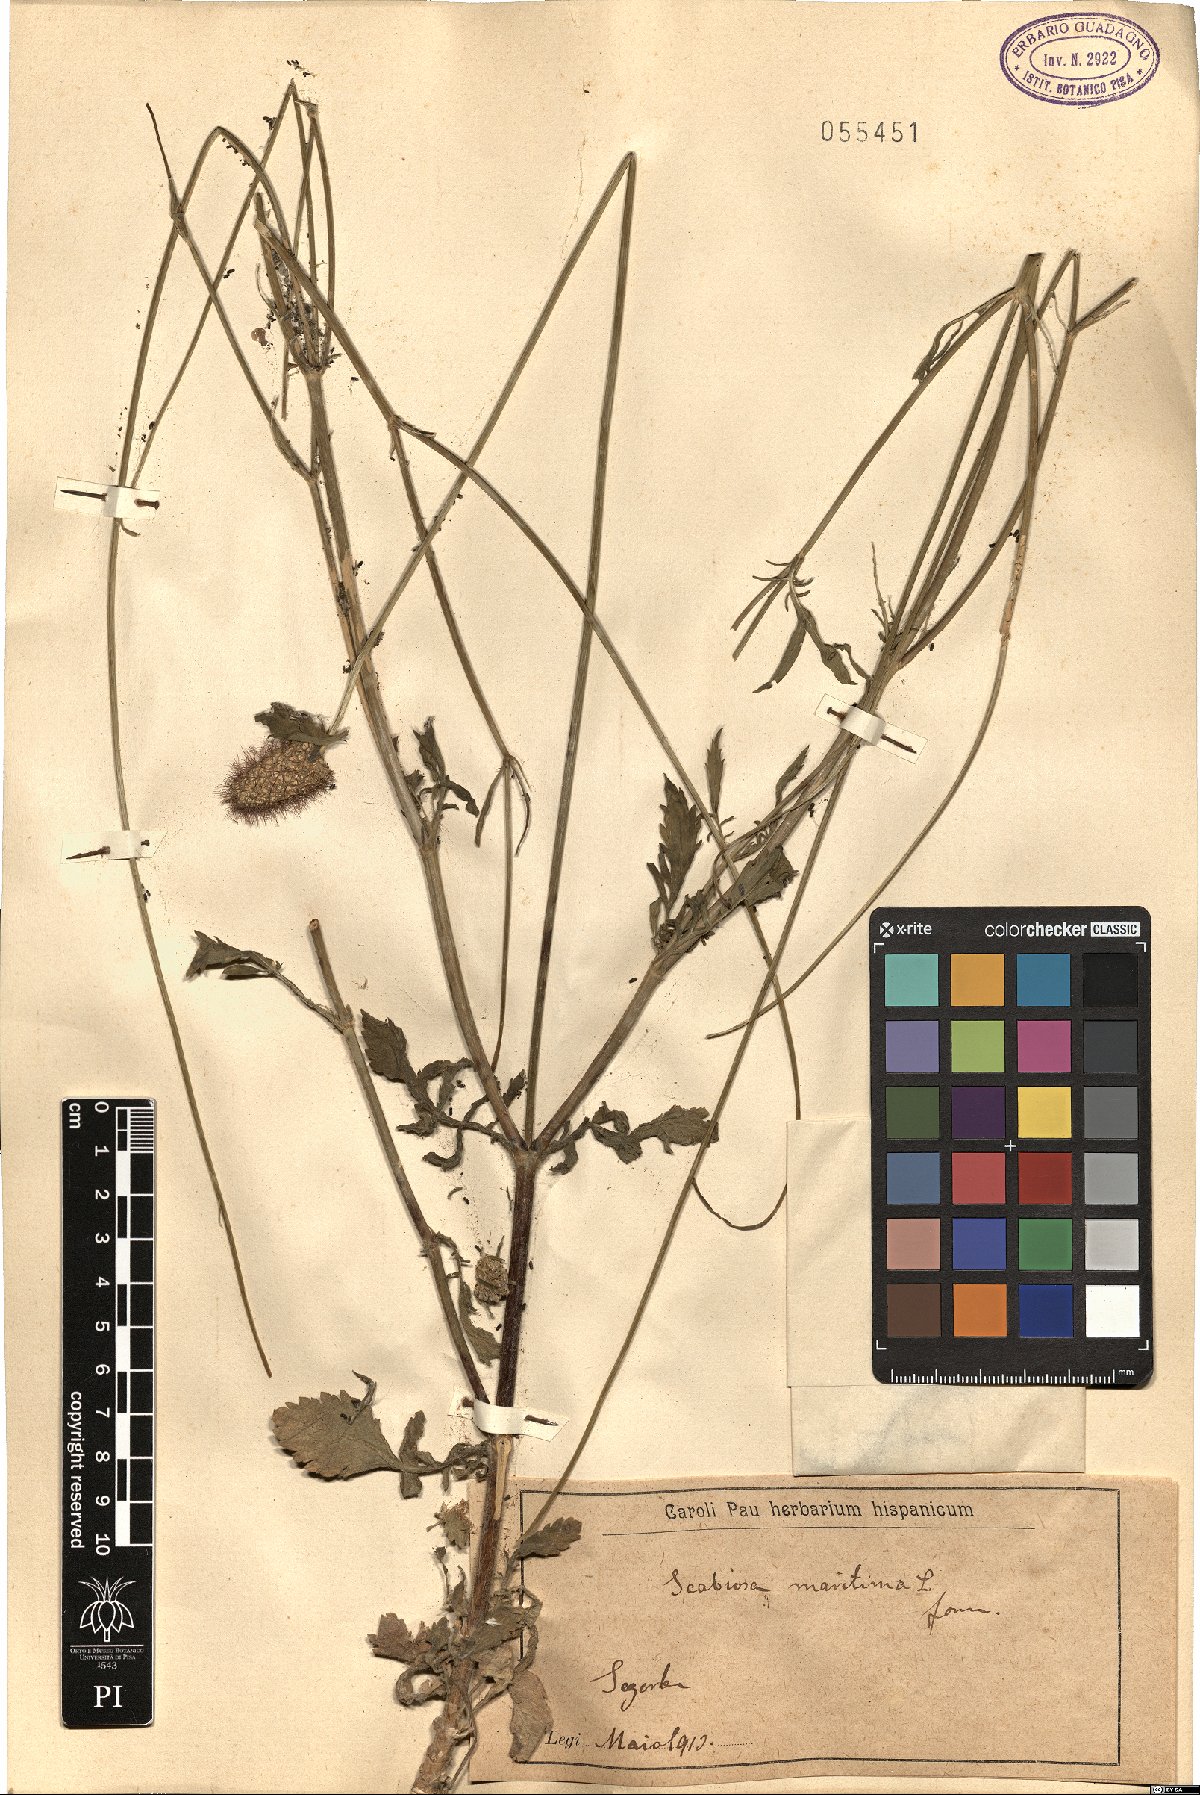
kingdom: Plantae
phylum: Tracheophyta
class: Magnoliopsida
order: Dipsacales
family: Caprifoliaceae
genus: Sixalix
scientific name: Sixalix maritima
